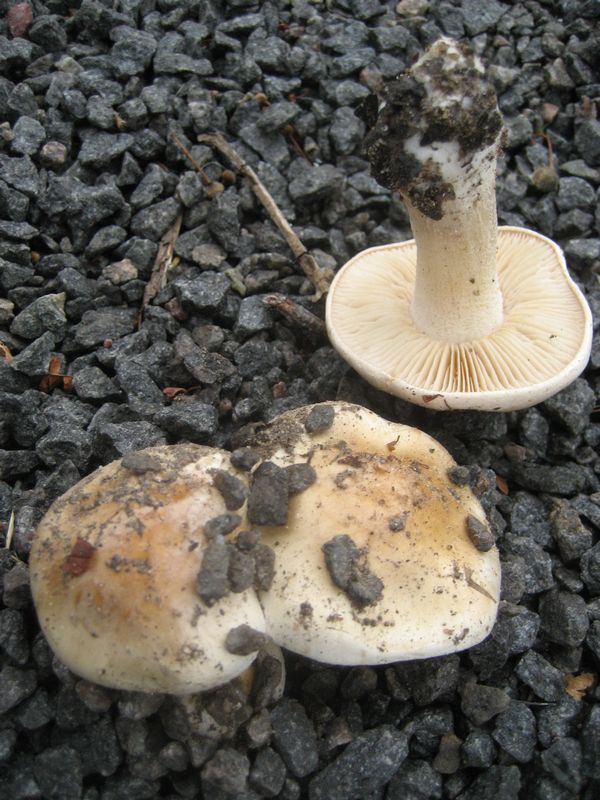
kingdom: Fungi
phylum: Basidiomycota
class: Agaricomycetes
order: Agaricales
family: Hymenogastraceae
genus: Hebeloma
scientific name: Hebeloma crustuliniforme
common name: almindelig tåreblad
